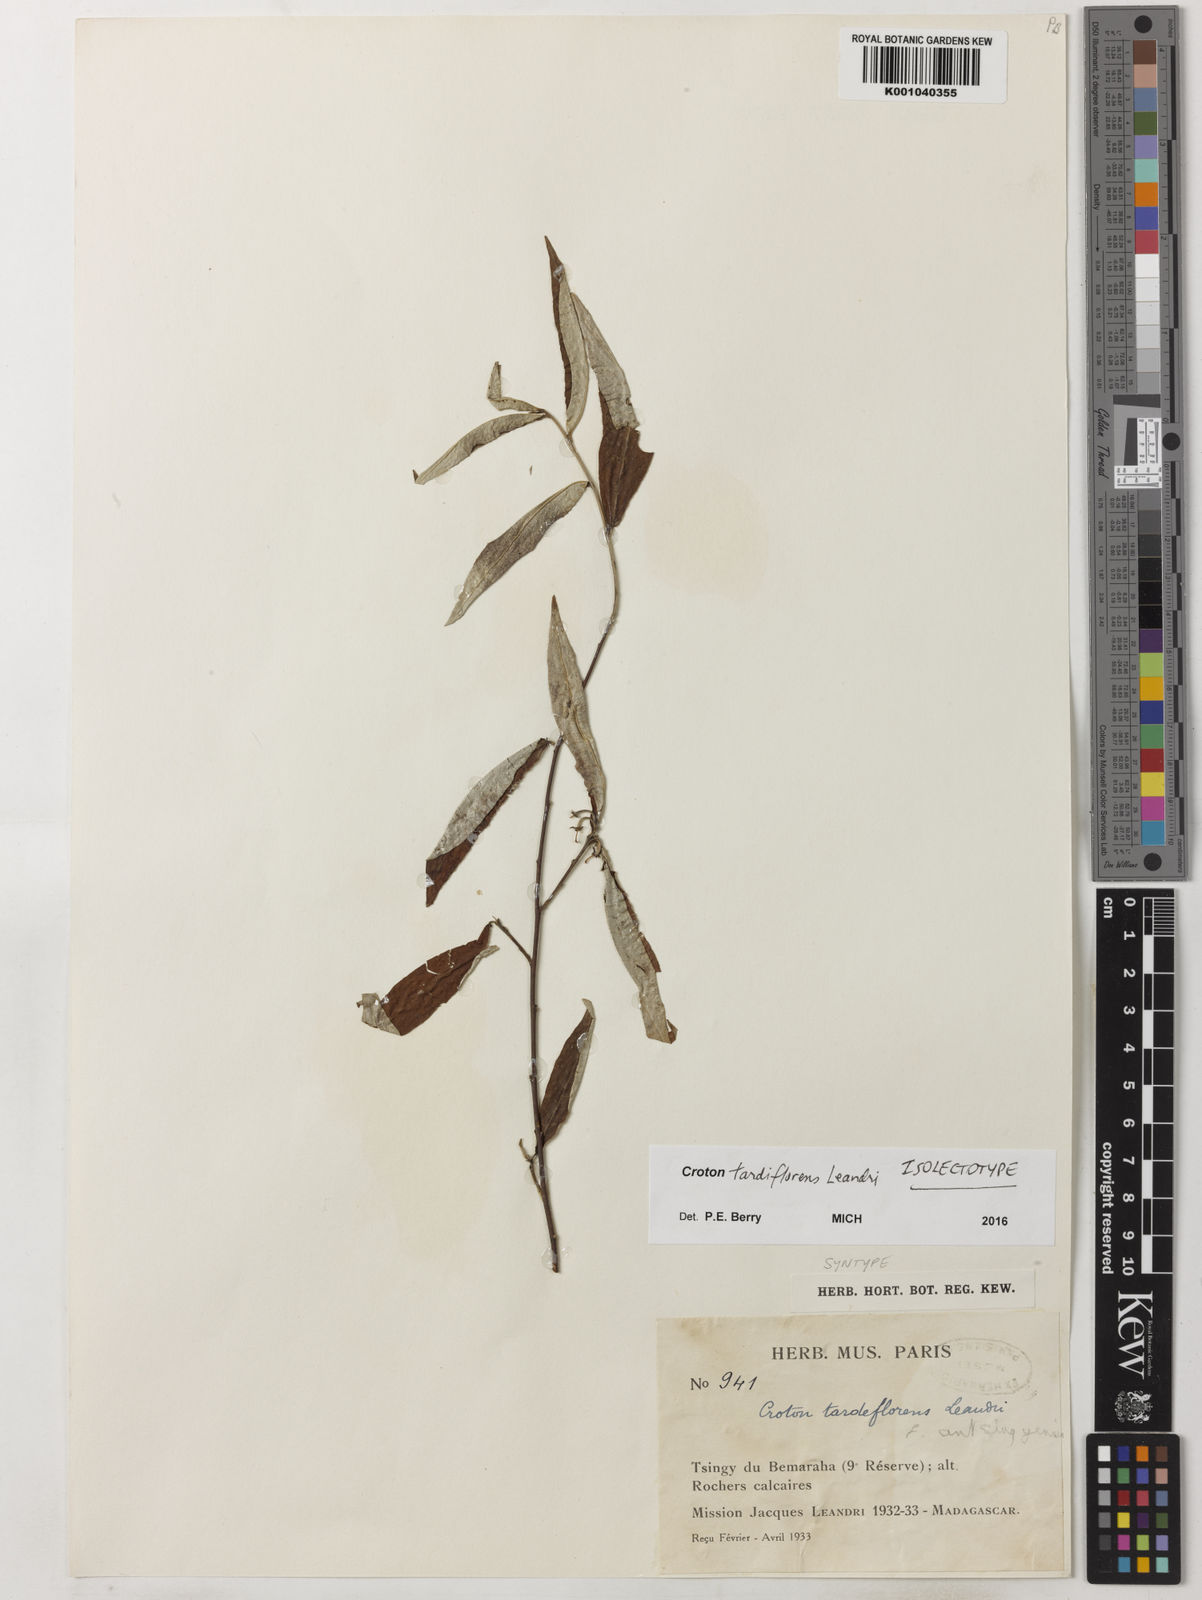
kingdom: Plantae
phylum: Tracheophyta
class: Magnoliopsida
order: Malpighiales
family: Euphorbiaceae
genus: Croton
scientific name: Croton
